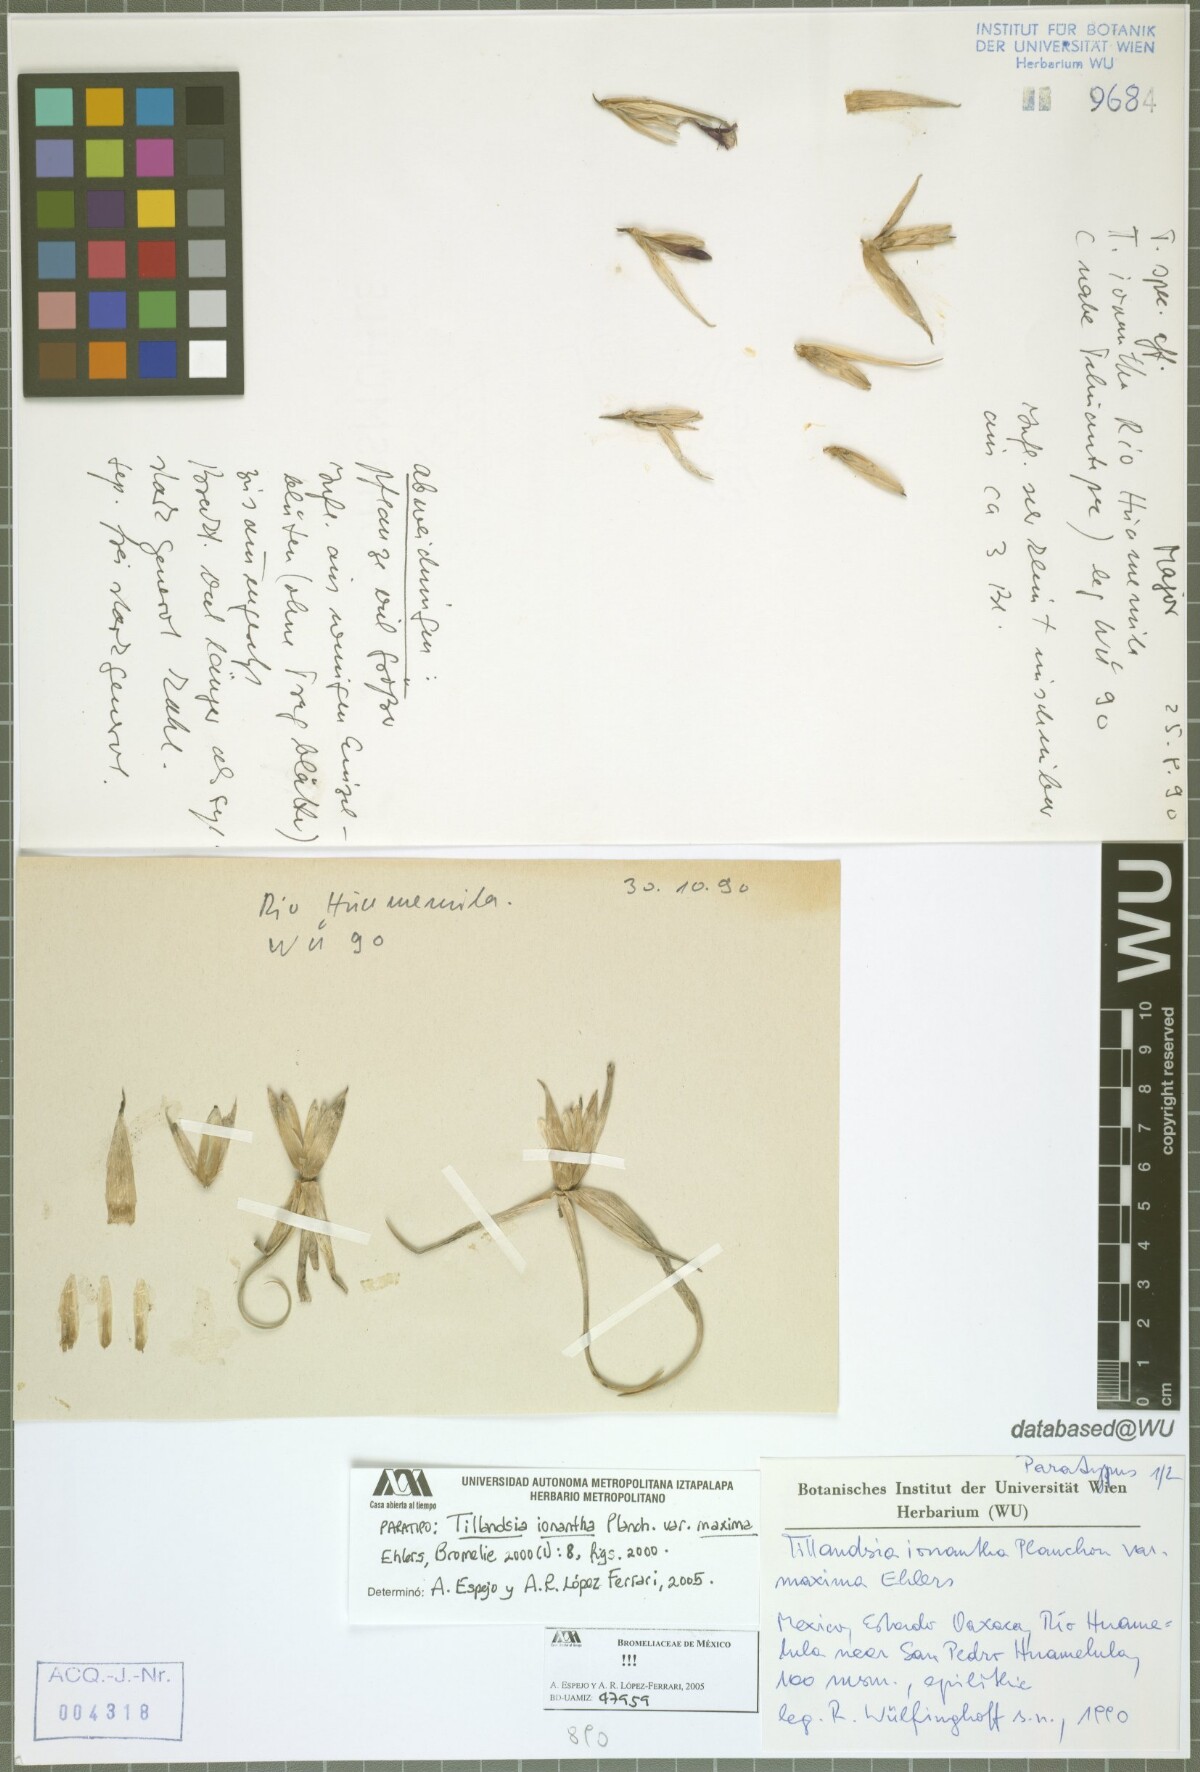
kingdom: Plantae
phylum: Tracheophyta
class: Liliopsida
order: Poales
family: Bromeliaceae
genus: Tillandsia
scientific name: Tillandsia ionantha
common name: Sky plant
